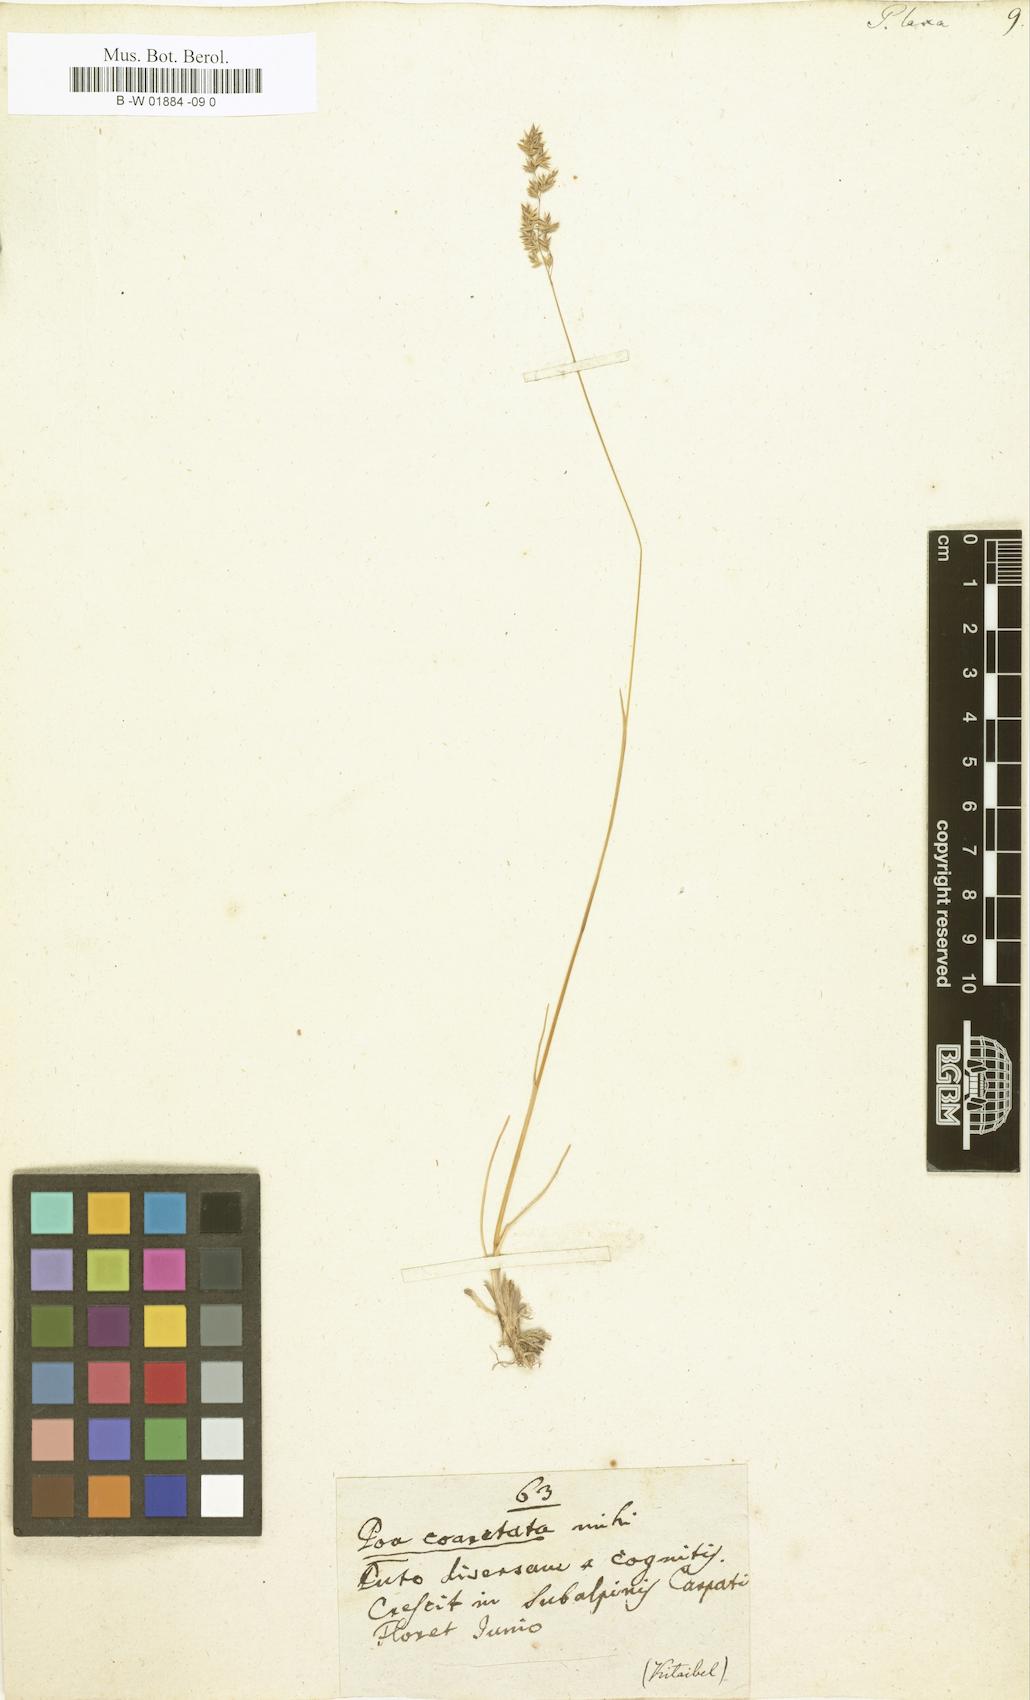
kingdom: Plantae
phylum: Tracheophyta
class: Liliopsida
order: Poales
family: Poaceae
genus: Poa
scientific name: Poa laxa
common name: Lax bluegrass
